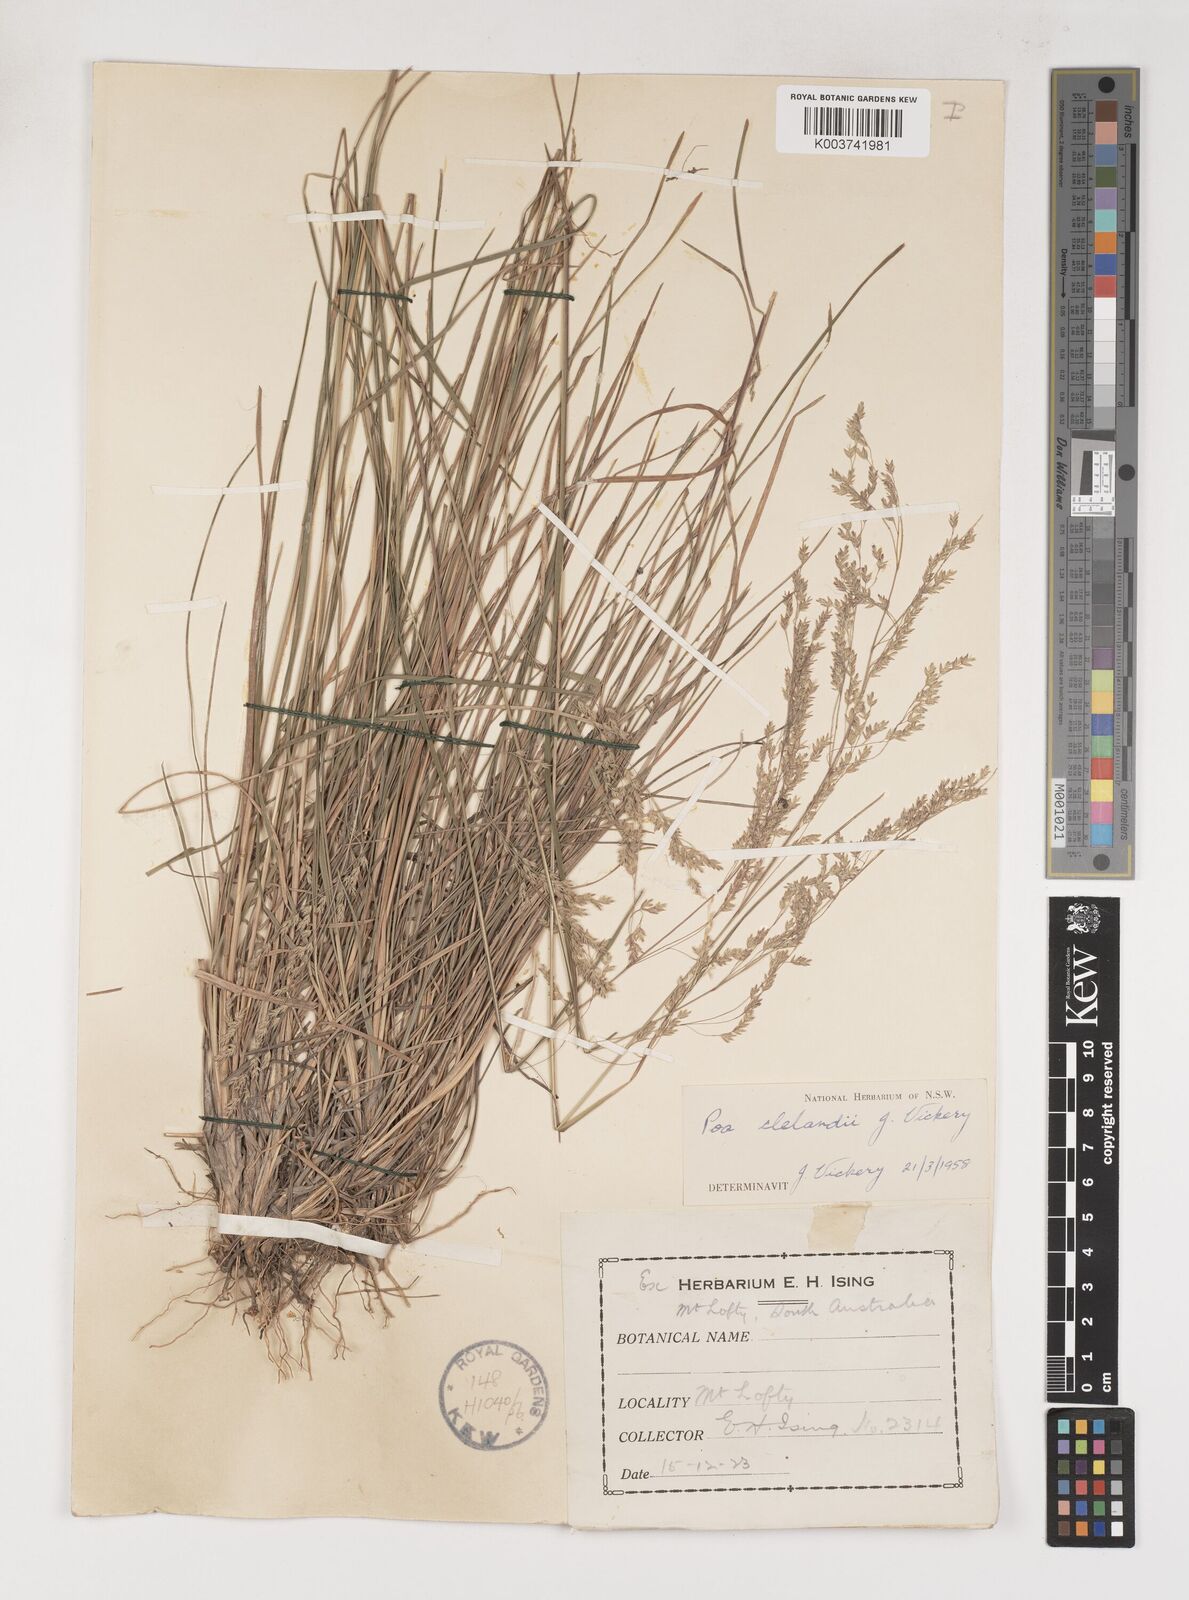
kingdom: Plantae
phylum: Tracheophyta
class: Liliopsida
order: Poales
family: Poaceae
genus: Poa
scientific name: Poa clelandii
